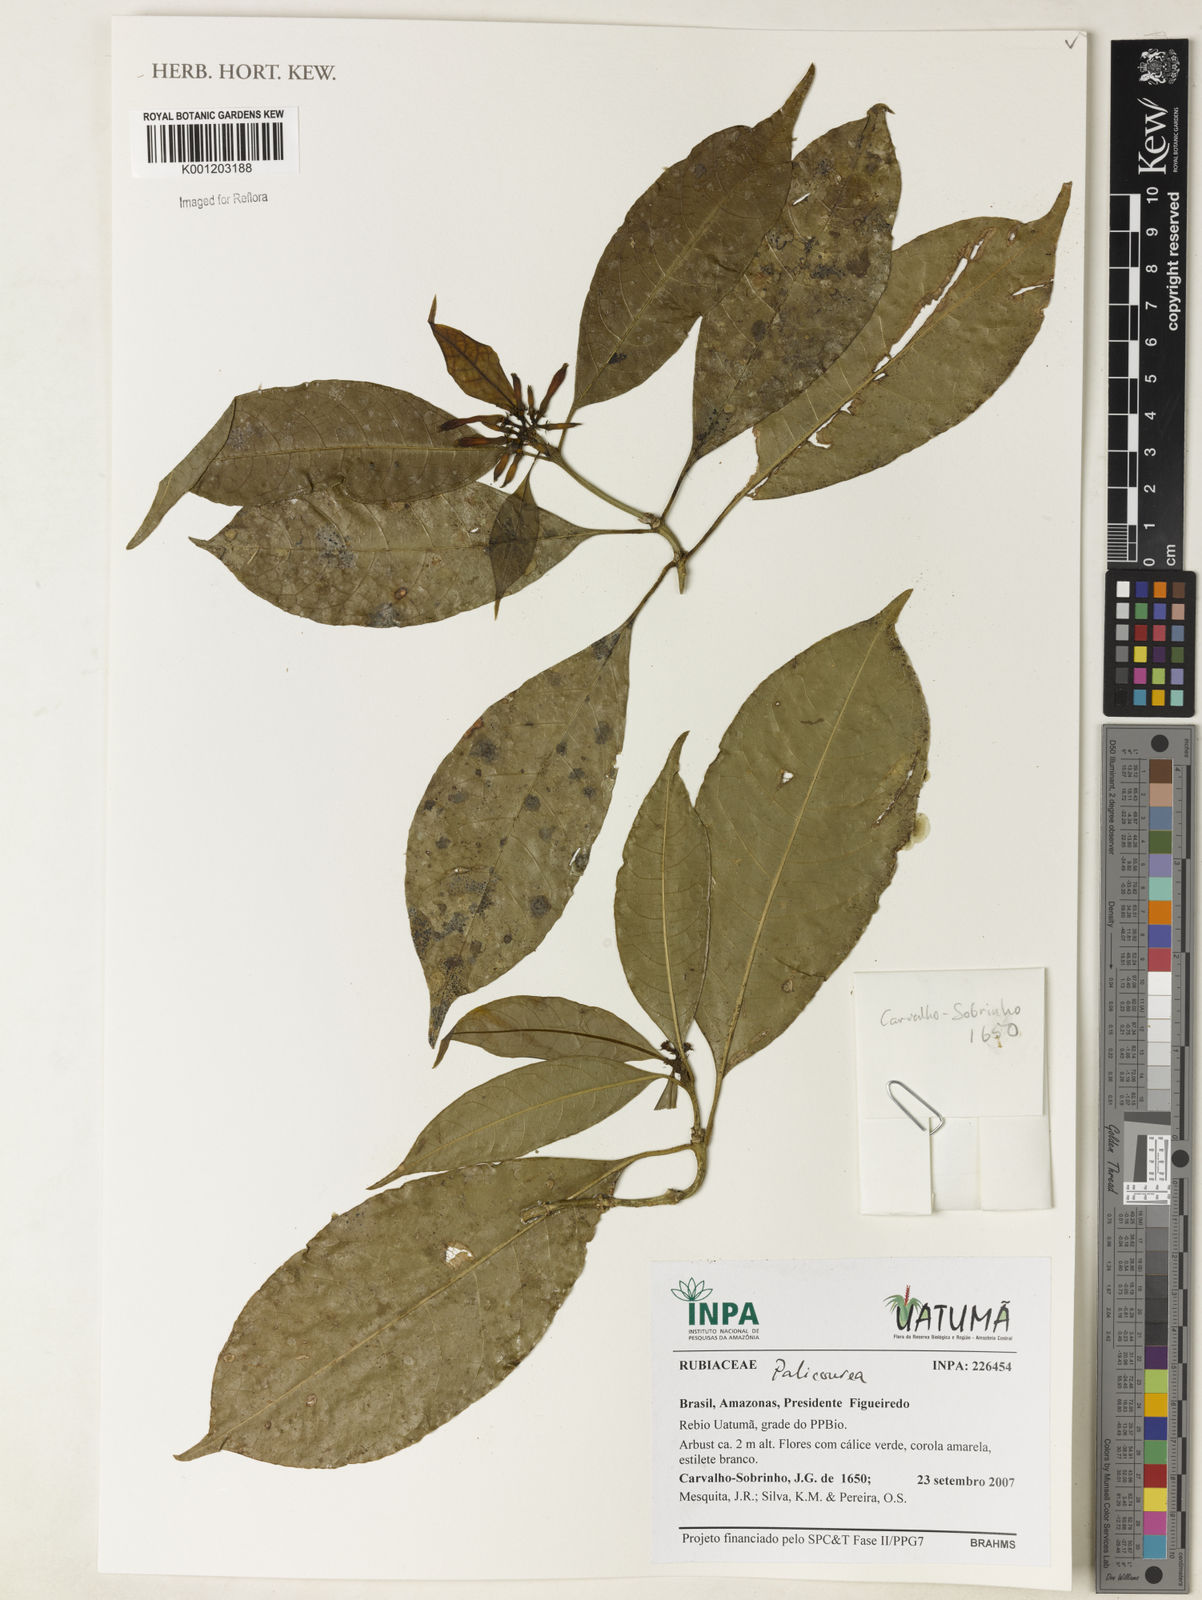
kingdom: Plantae
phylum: Tracheophyta
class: Magnoliopsida
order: Gentianales
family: Rubiaceae
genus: Palicourea
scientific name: Palicourea
